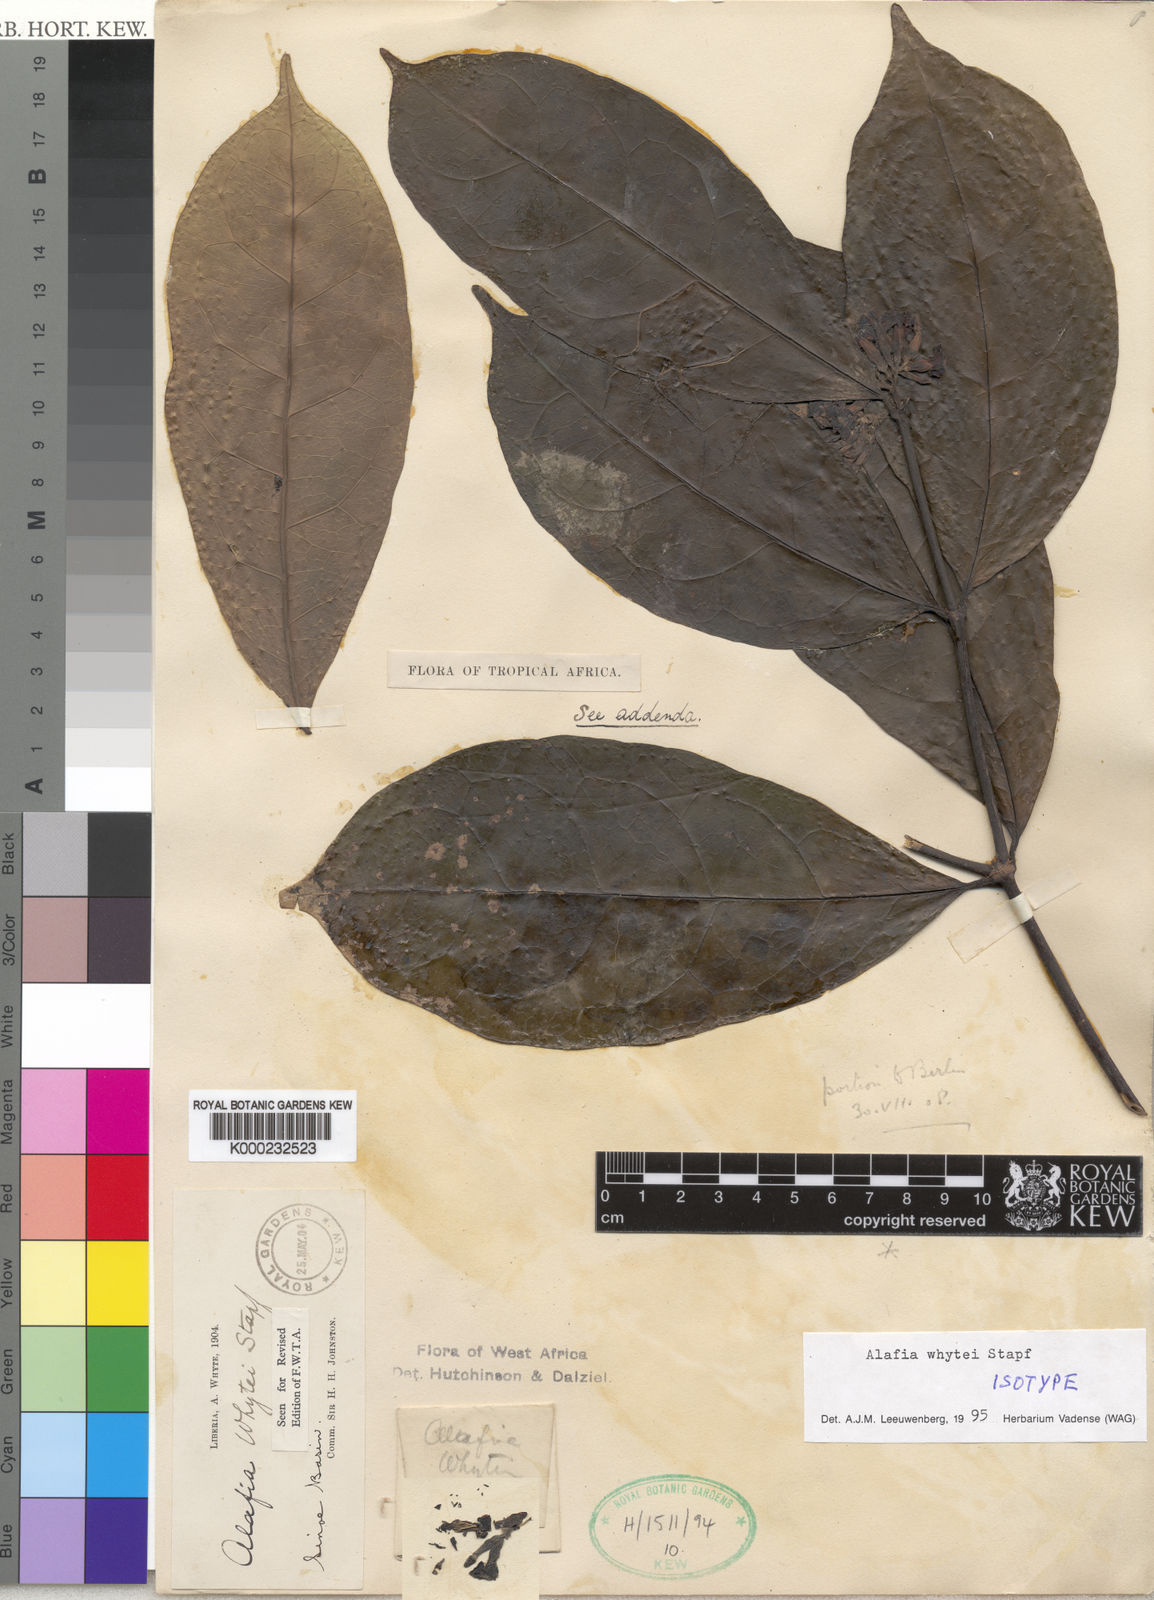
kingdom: Plantae
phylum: Tracheophyta
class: Magnoliopsida
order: Gentianales
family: Apocynaceae
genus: Alafia
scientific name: Alafia whytei
